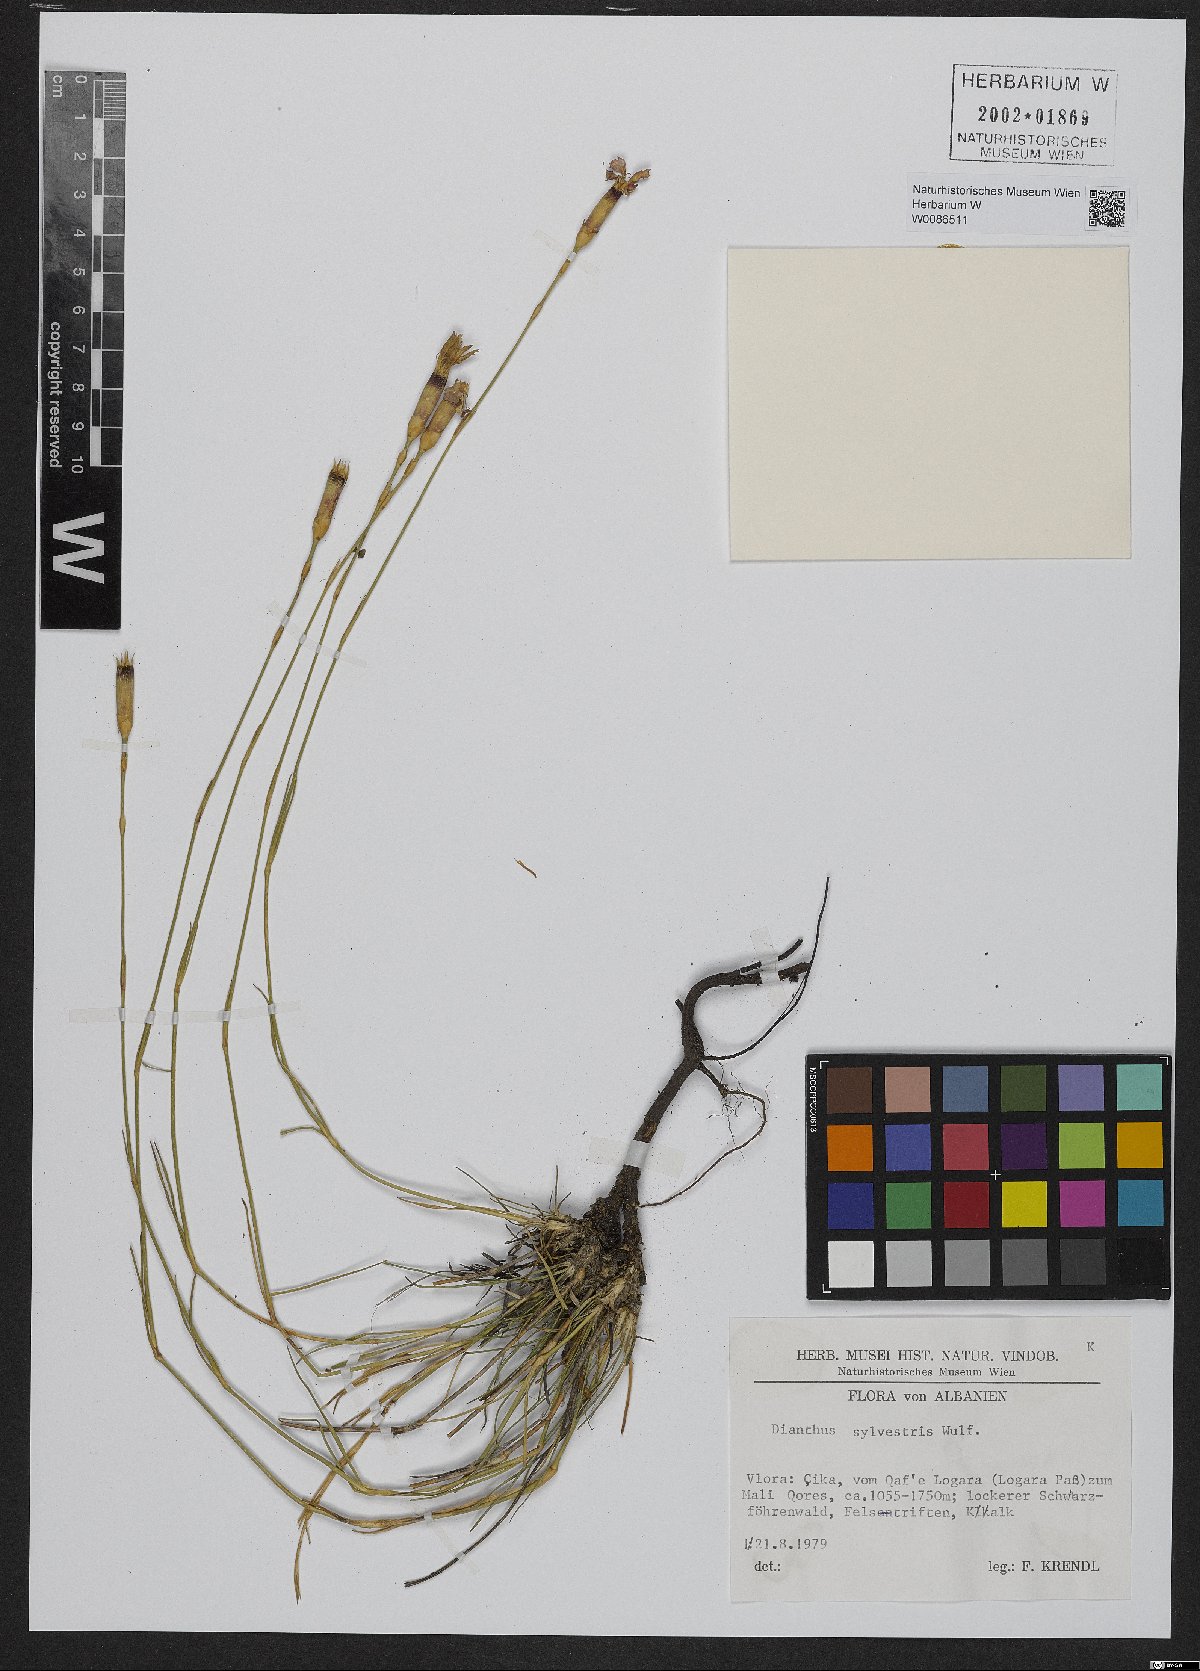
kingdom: Plantae
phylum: Tracheophyta
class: Magnoliopsida
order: Caryophyllales
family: Caryophyllaceae
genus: Dianthus
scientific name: Dianthus sylvestris
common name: Wood pink
